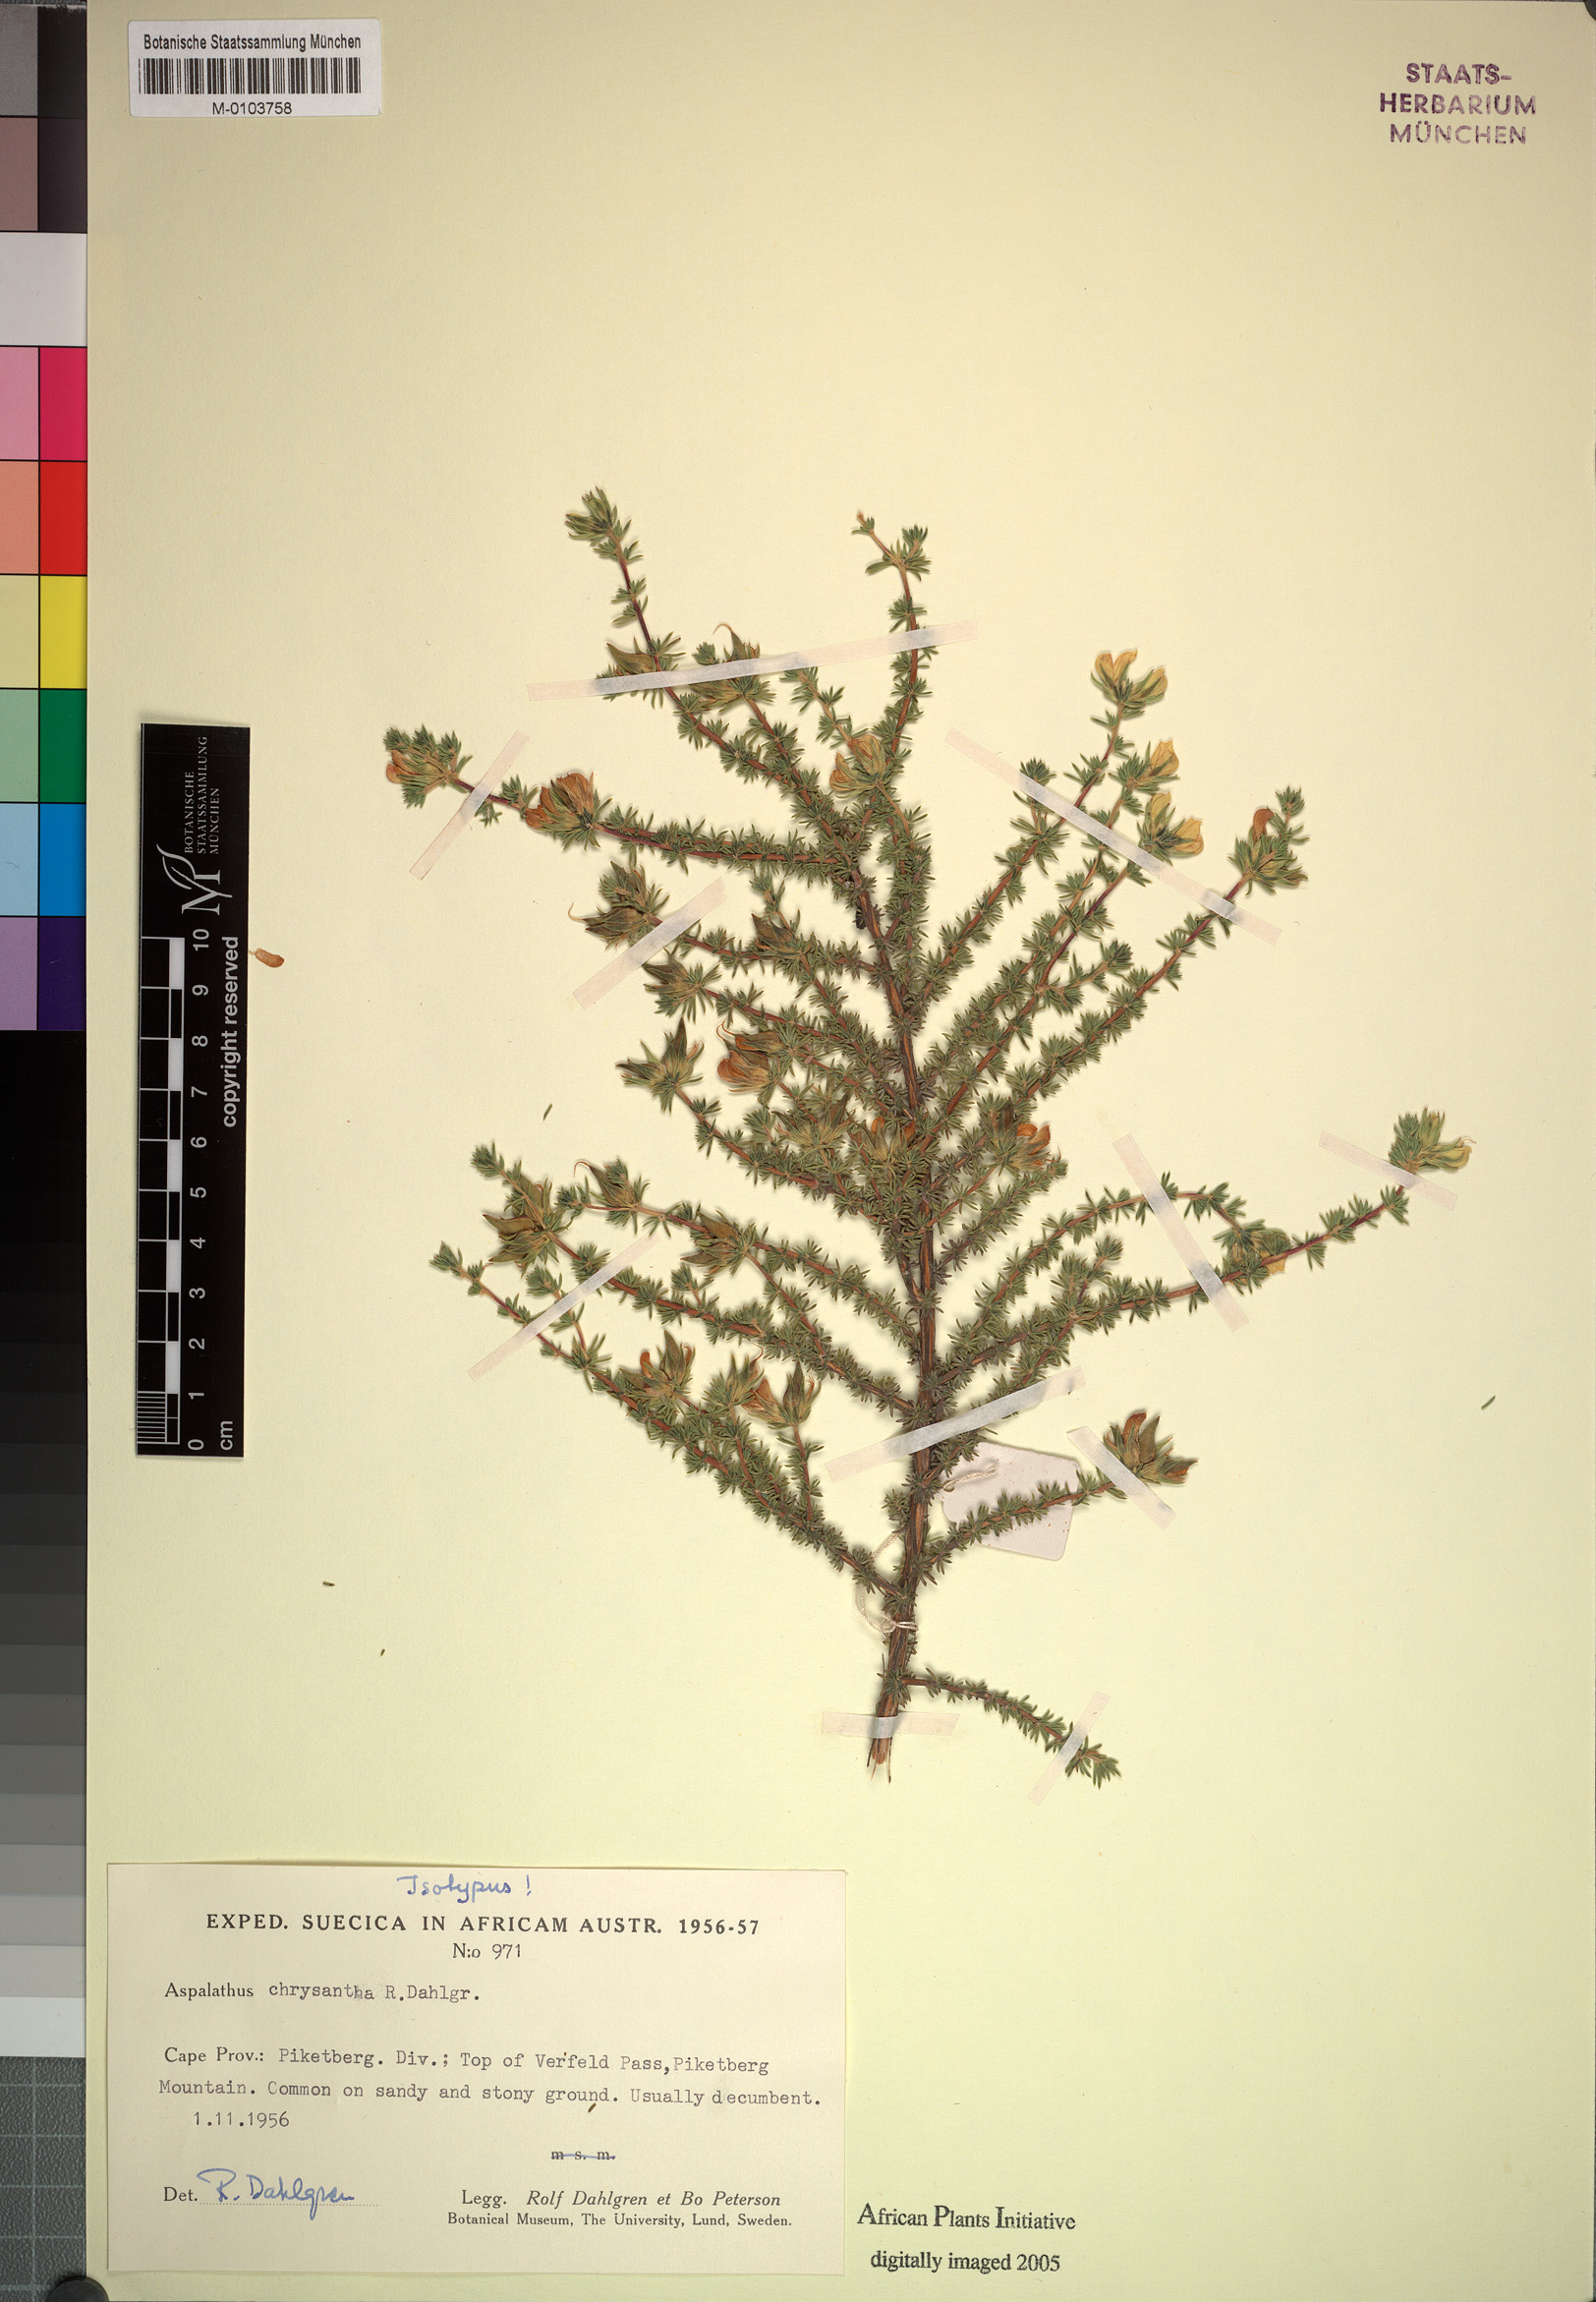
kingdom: Plantae
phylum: Tracheophyta
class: Magnoliopsida
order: Fabales
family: Fabaceae
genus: Aspalathus
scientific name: Aspalathus chrysantha
